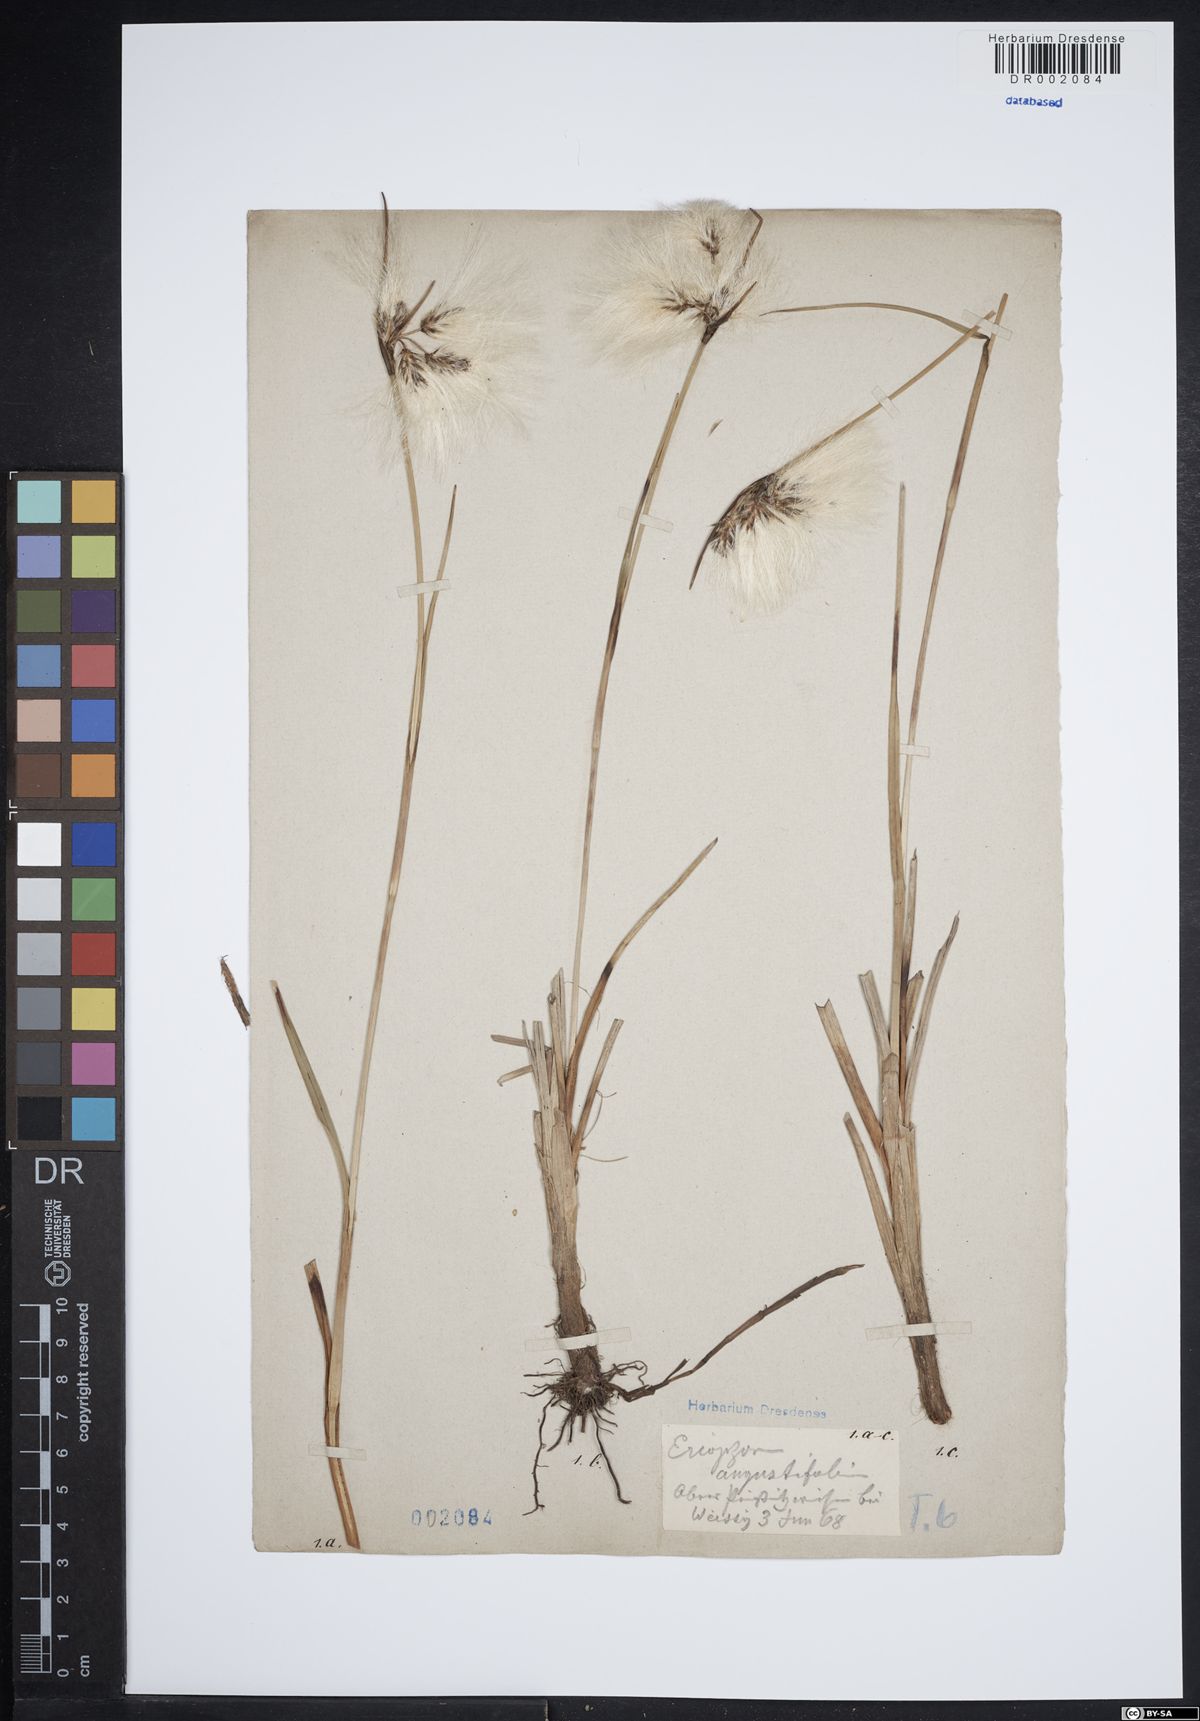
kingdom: Plantae
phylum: Tracheophyta
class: Liliopsida
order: Poales
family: Cyperaceae
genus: Eriophorum
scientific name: Eriophorum angustifolium
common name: Common cottongrass
